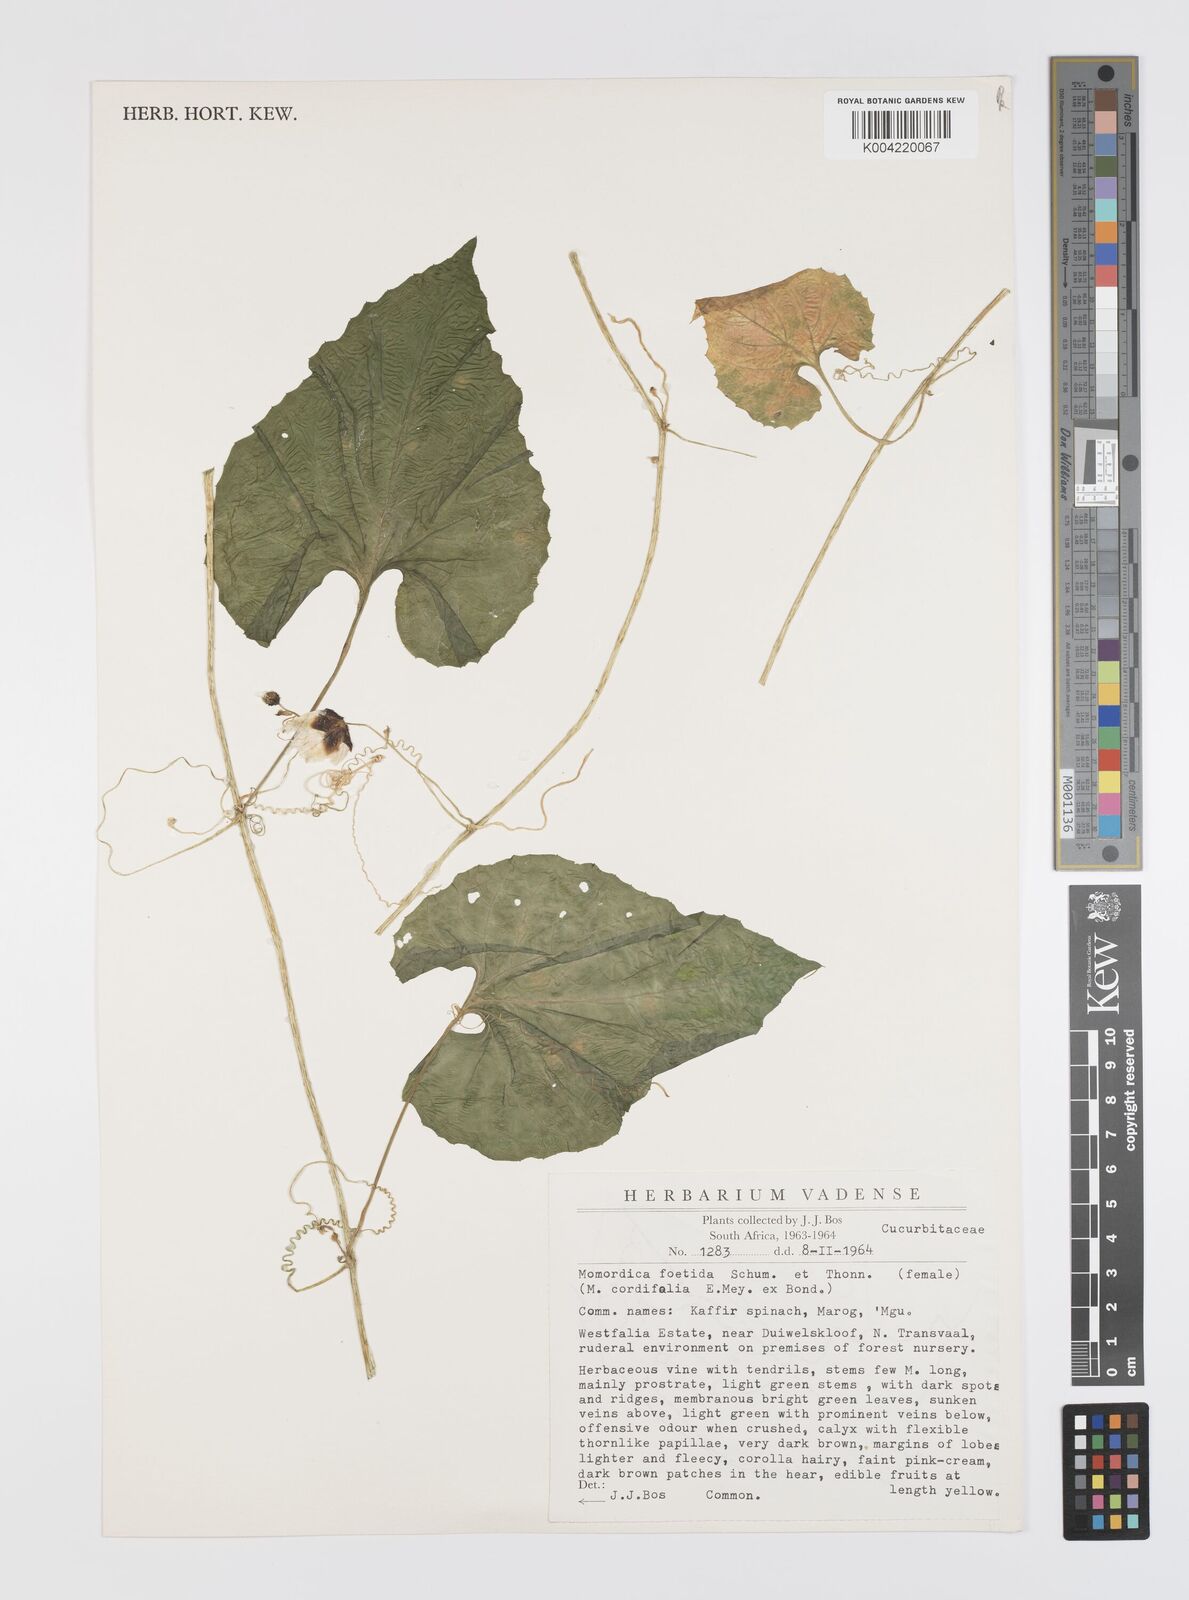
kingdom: Plantae
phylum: Tracheophyta
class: Magnoliopsida
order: Cucurbitales
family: Cucurbitaceae
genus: Momordica
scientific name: Momordica foetida
